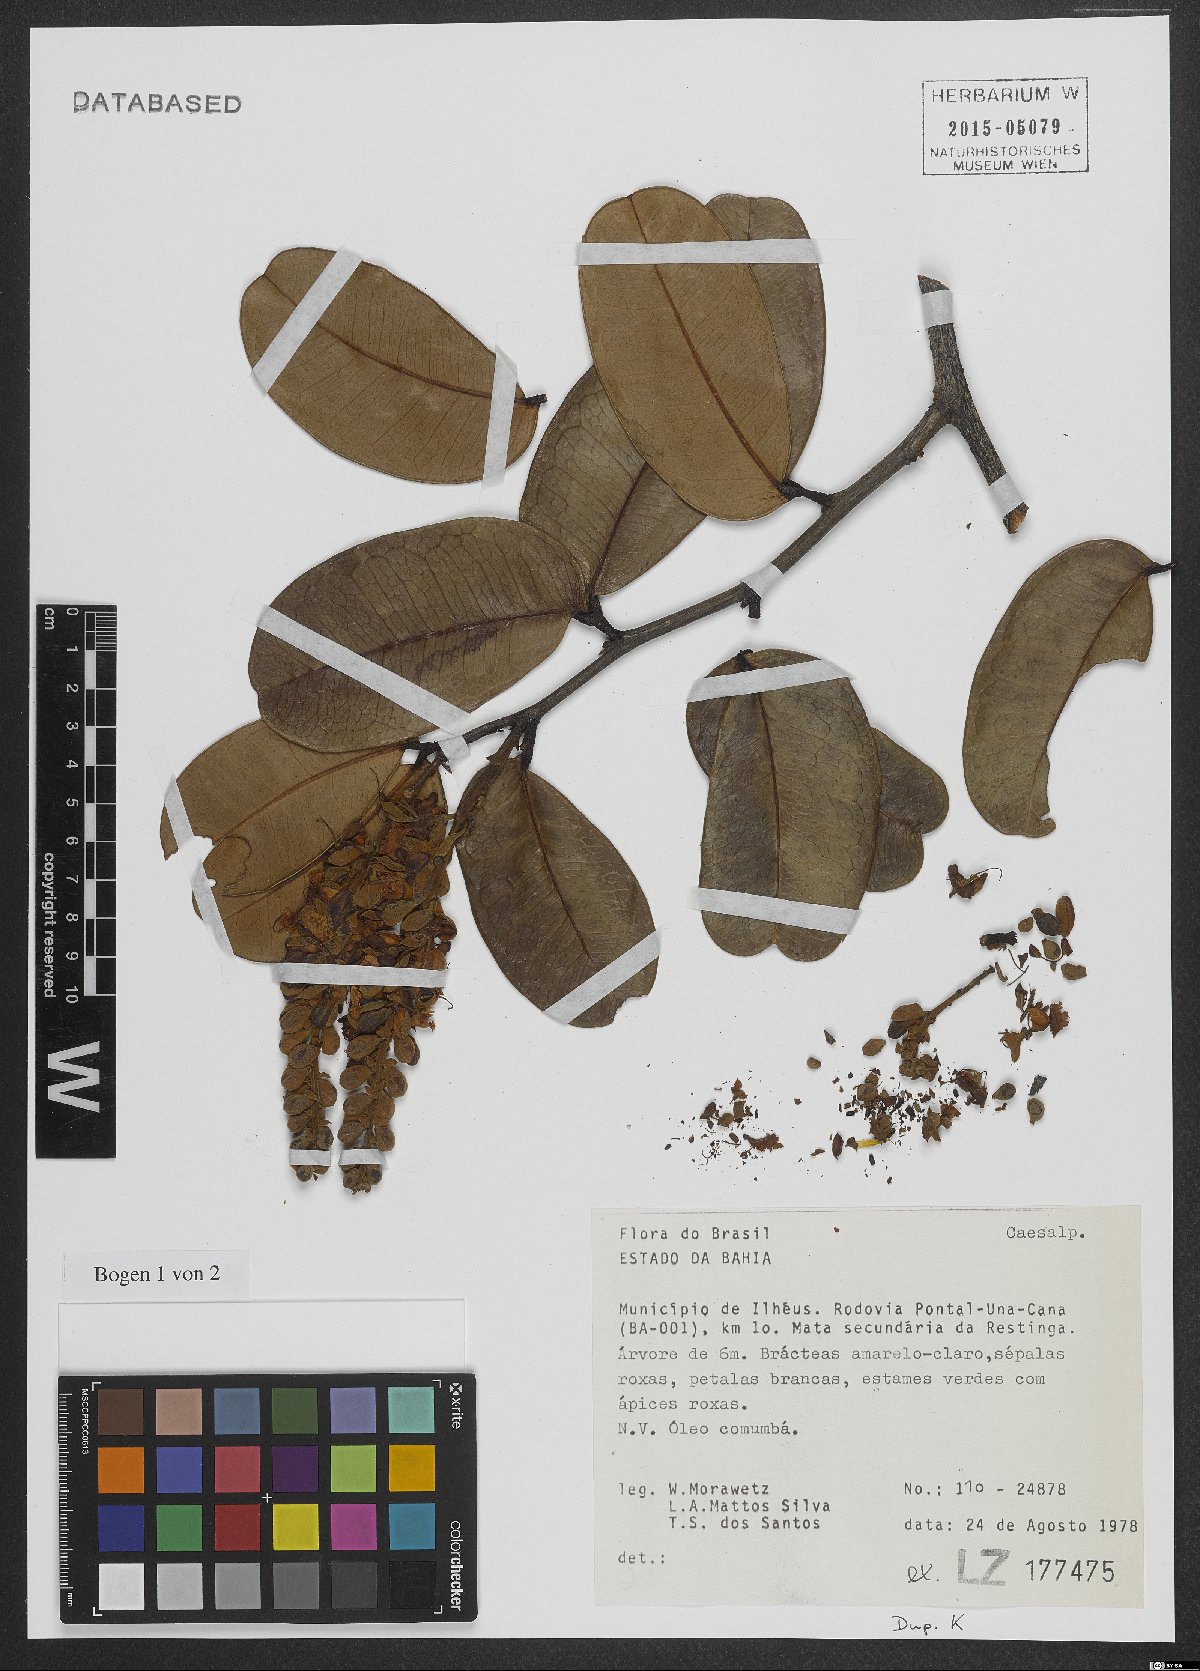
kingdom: Plantae
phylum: Tracheophyta
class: Magnoliopsida
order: Fabales
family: Fabaceae
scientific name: Fabaceae
